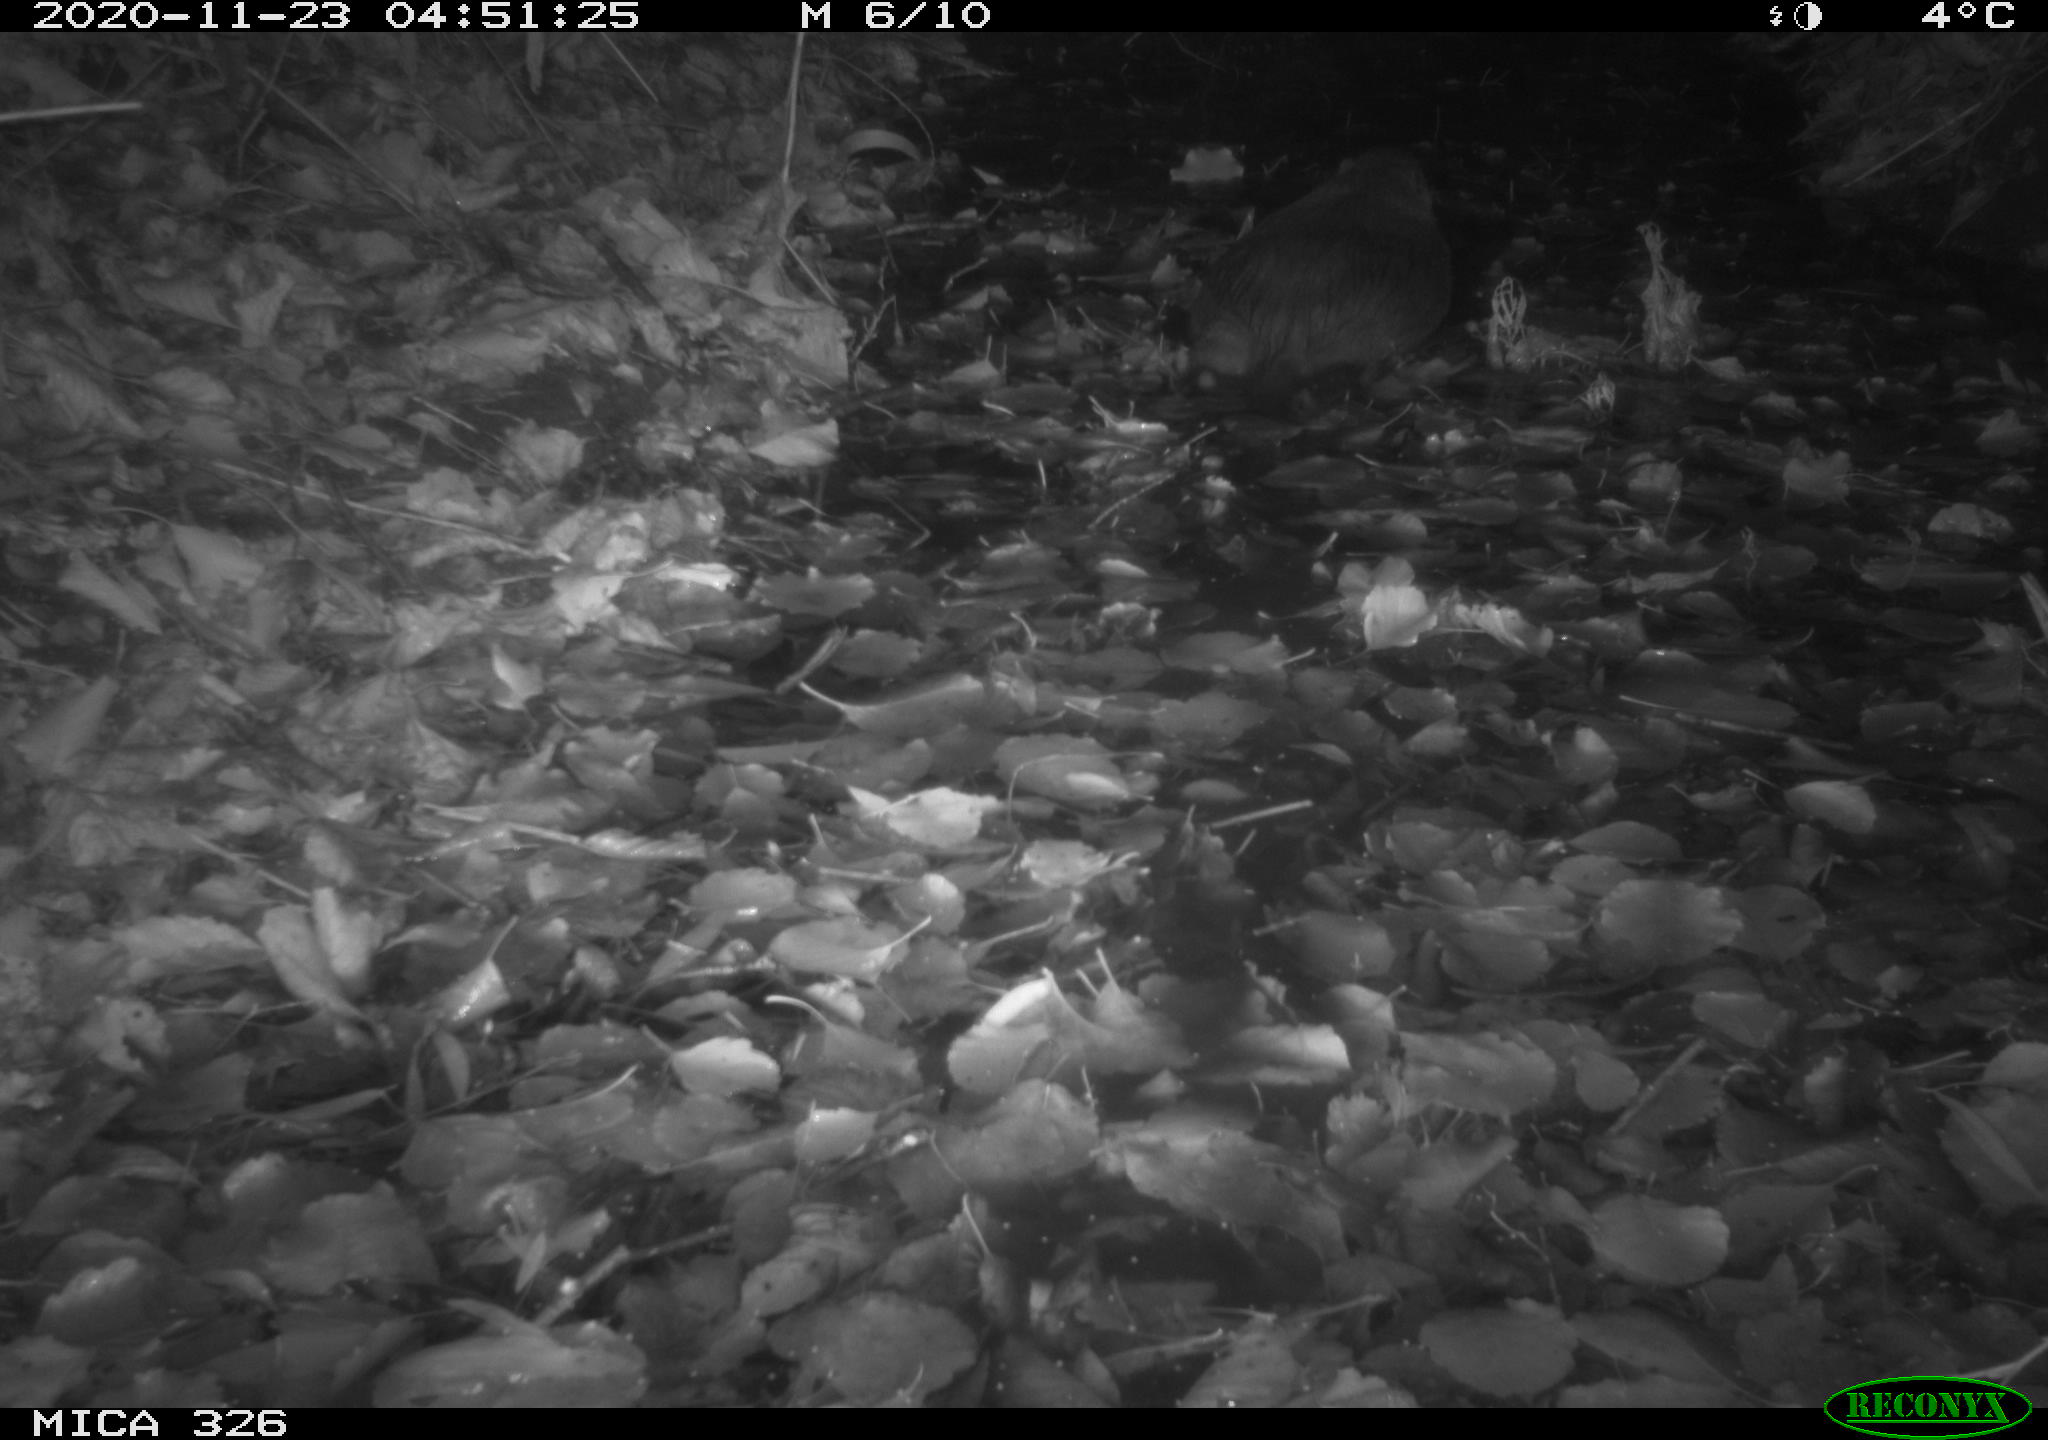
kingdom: Animalia
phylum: Chordata
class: Mammalia
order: Rodentia
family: Myocastoridae
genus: Myocastor
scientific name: Myocastor coypus
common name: Coypu
